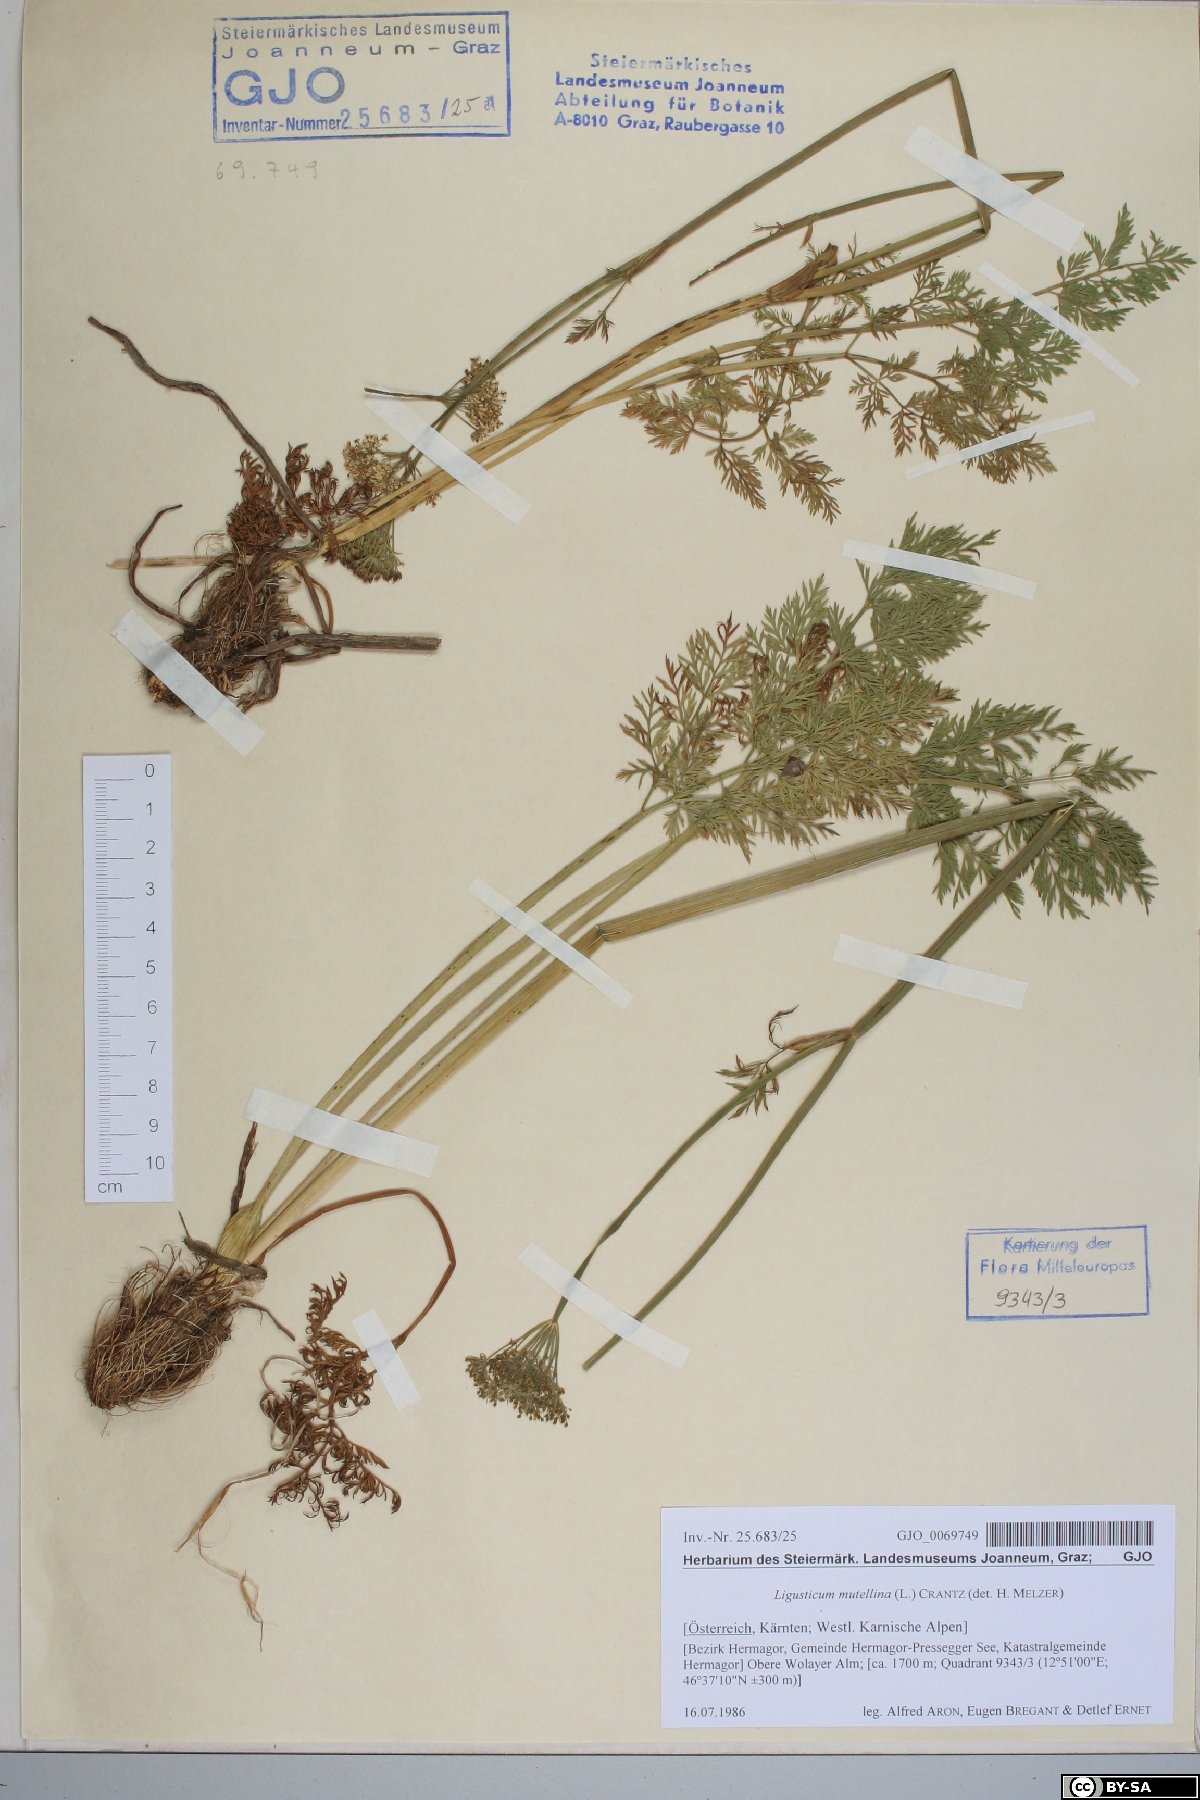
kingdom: Plantae
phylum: Tracheophyta
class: Magnoliopsida
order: Apiales
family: Apiaceae
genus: Mutellina
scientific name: Mutellina adonidifolia
